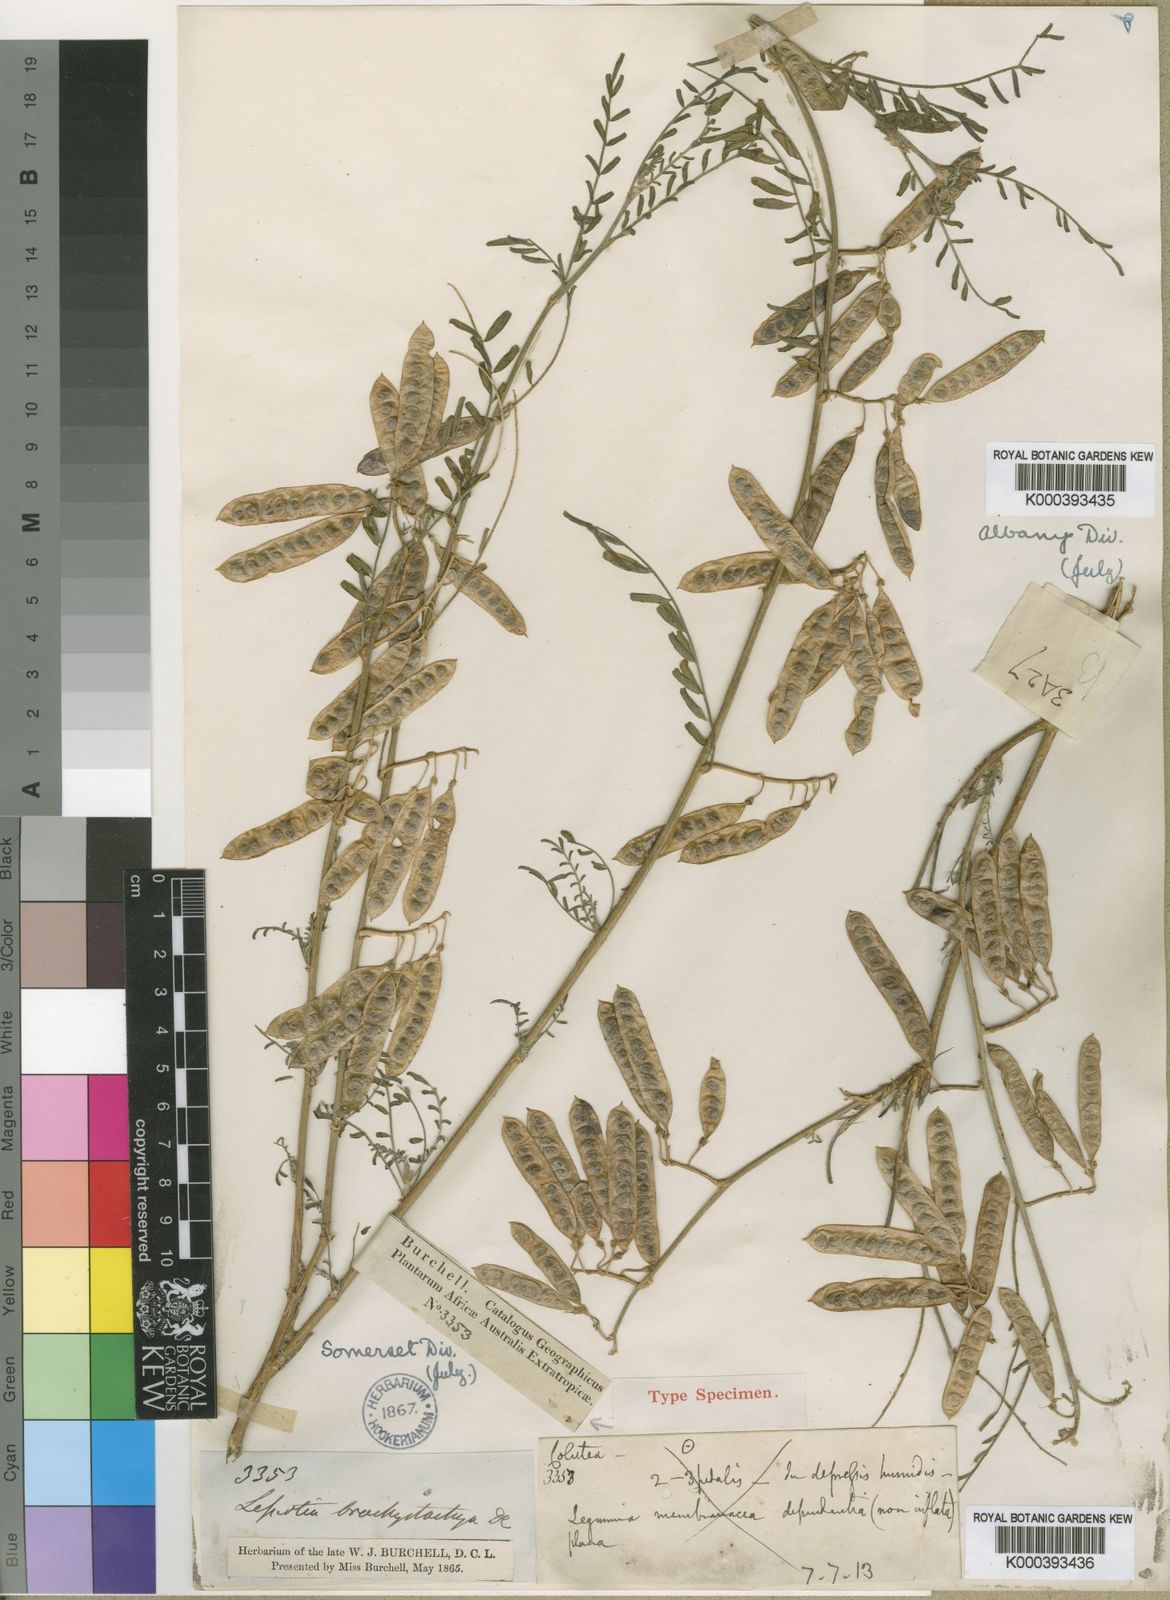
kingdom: Plantae
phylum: Tracheophyta
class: Magnoliopsida
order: Fabales
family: Fabaceae
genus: Lessertia
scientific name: Lessertia brachystachya
